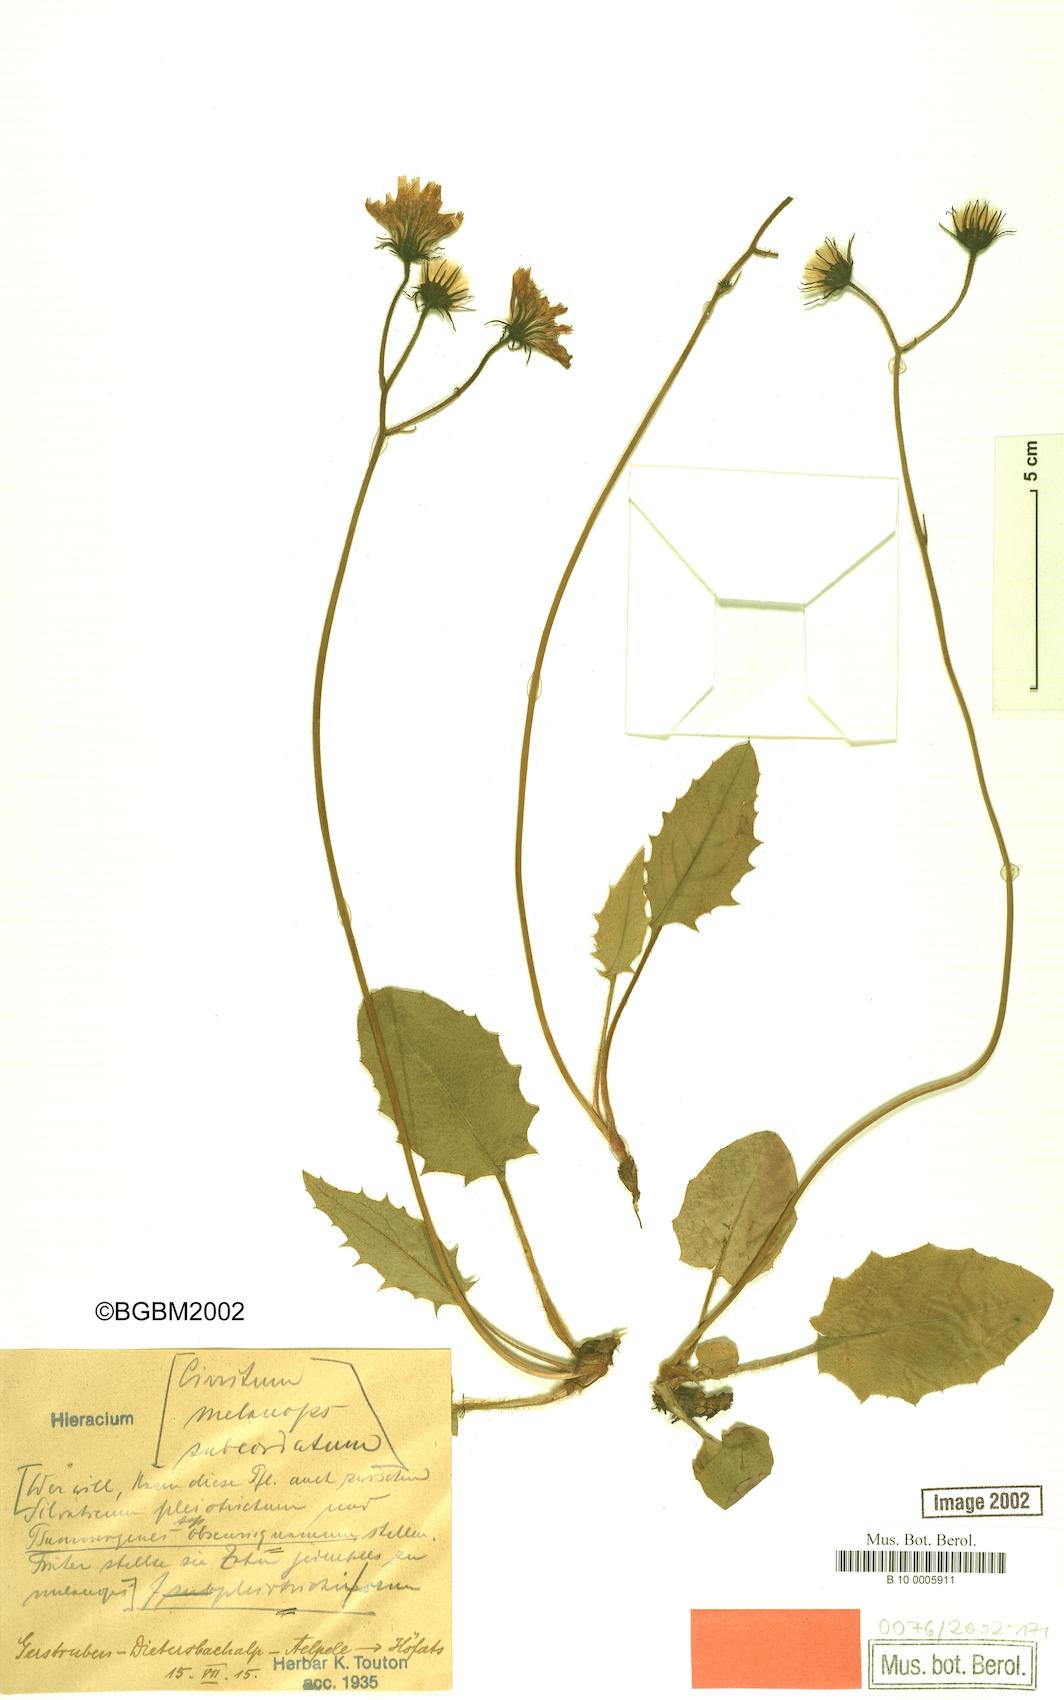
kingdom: Plantae
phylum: Tracheophyta
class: Magnoliopsida
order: Asterales
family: Asteraceae
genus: Hieracium
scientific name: Hieracium psammogenes
